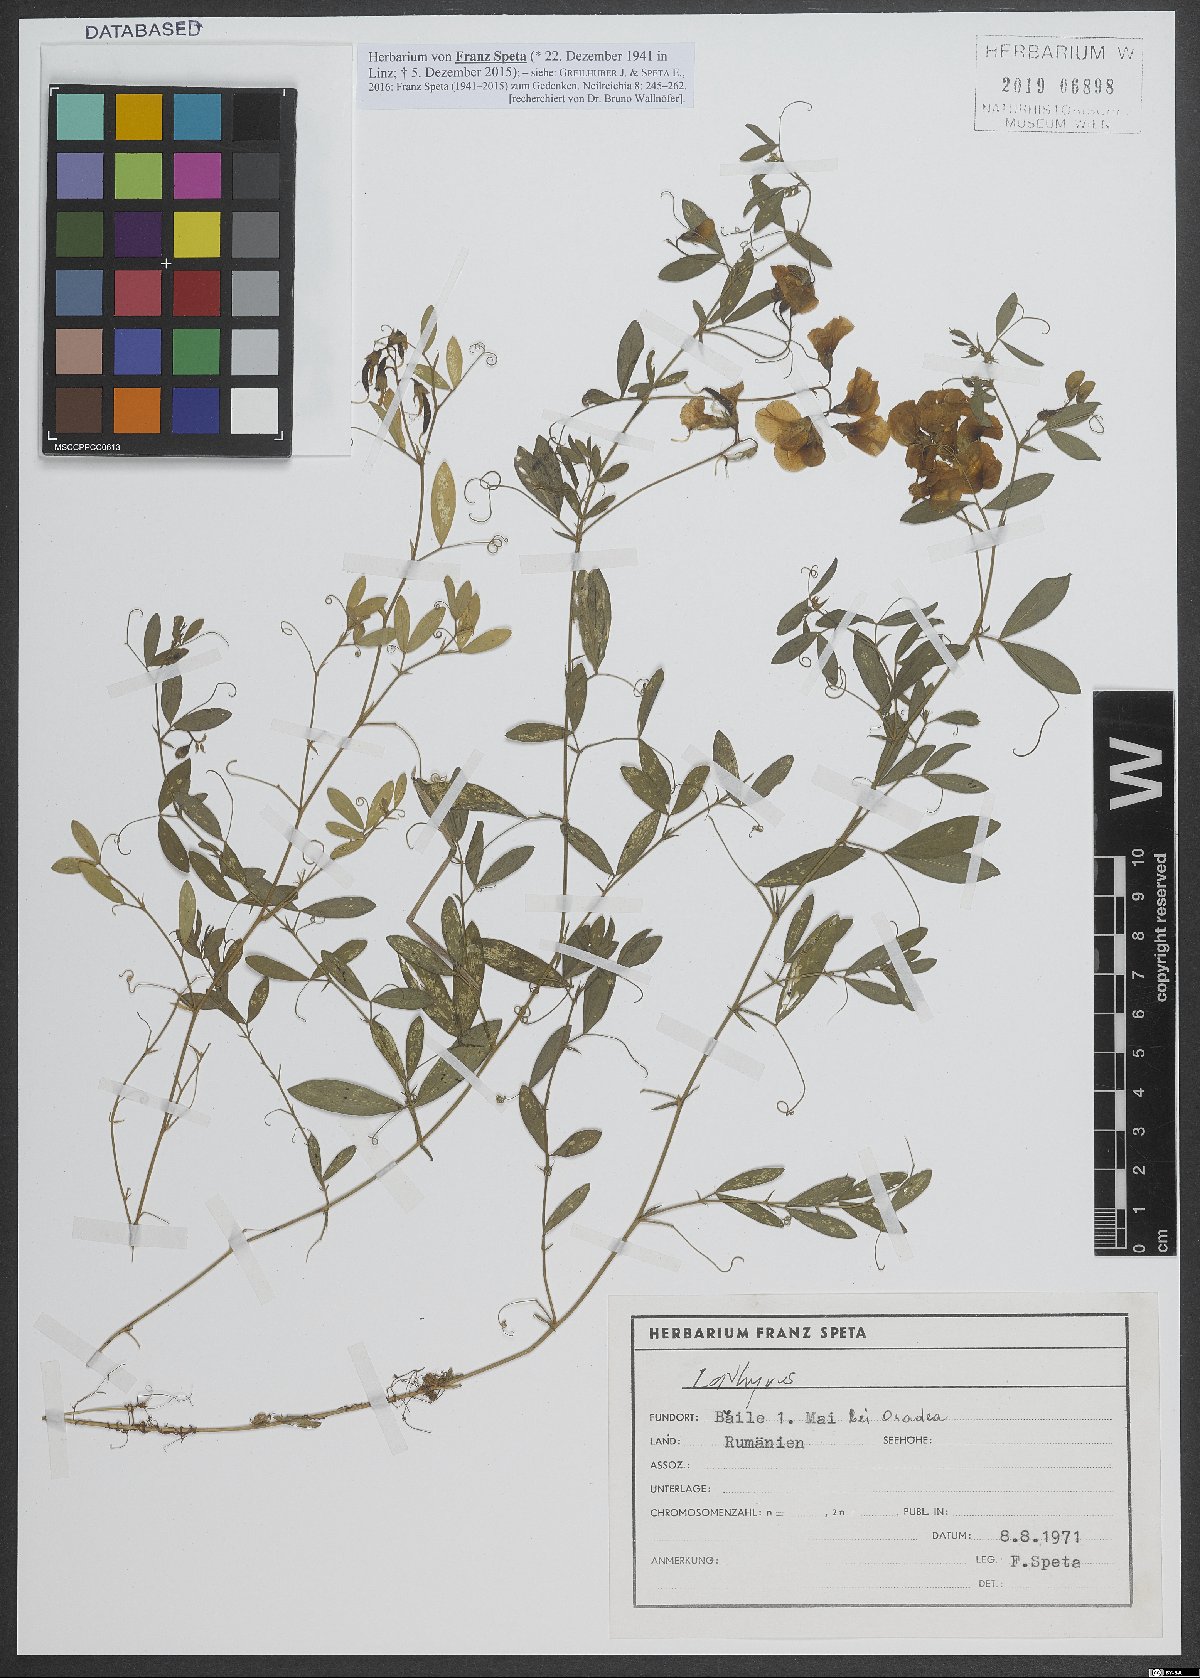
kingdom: Plantae
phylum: Tracheophyta
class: Magnoliopsida
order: Fabales
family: Fabaceae
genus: Lathyrus
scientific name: Lathyrus
